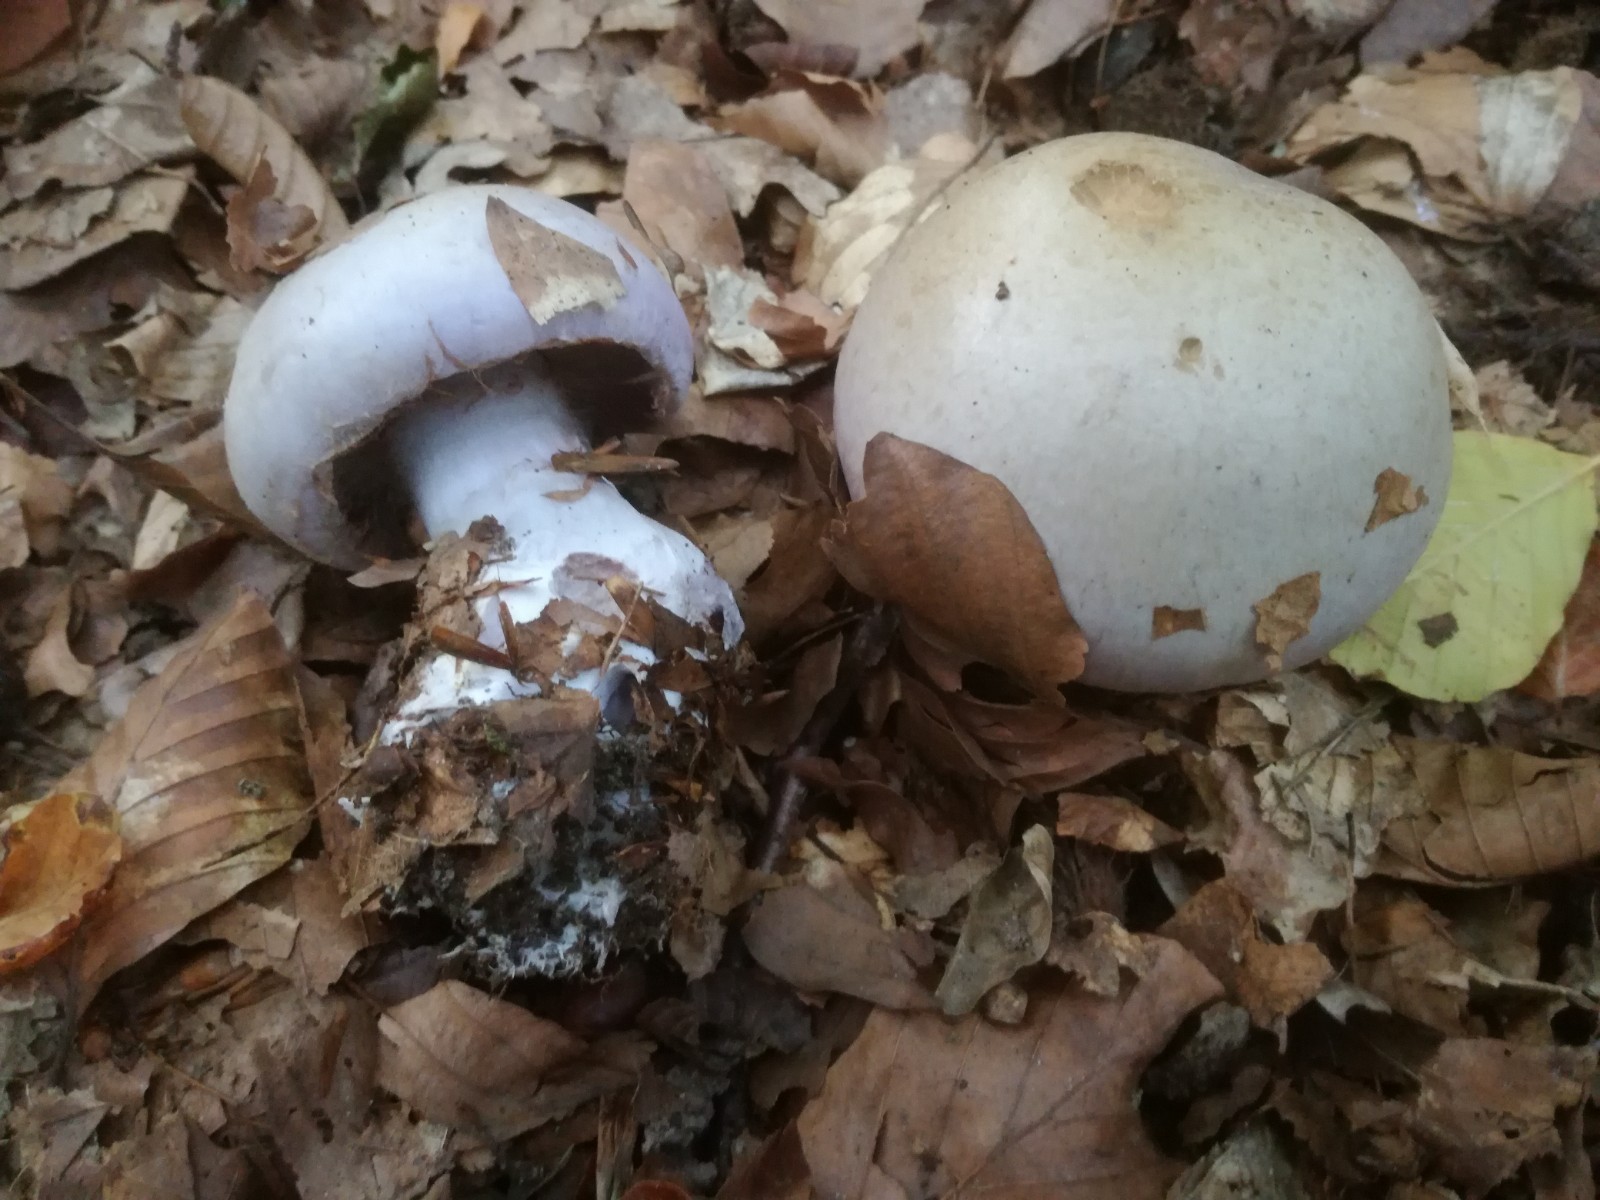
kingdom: Fungi
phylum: Basidiomycota
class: Agaricomycetes
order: Agaricales
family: Cortinariaceae
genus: Cortinarius
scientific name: Cortinarius largus
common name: violetrandet slørhat
